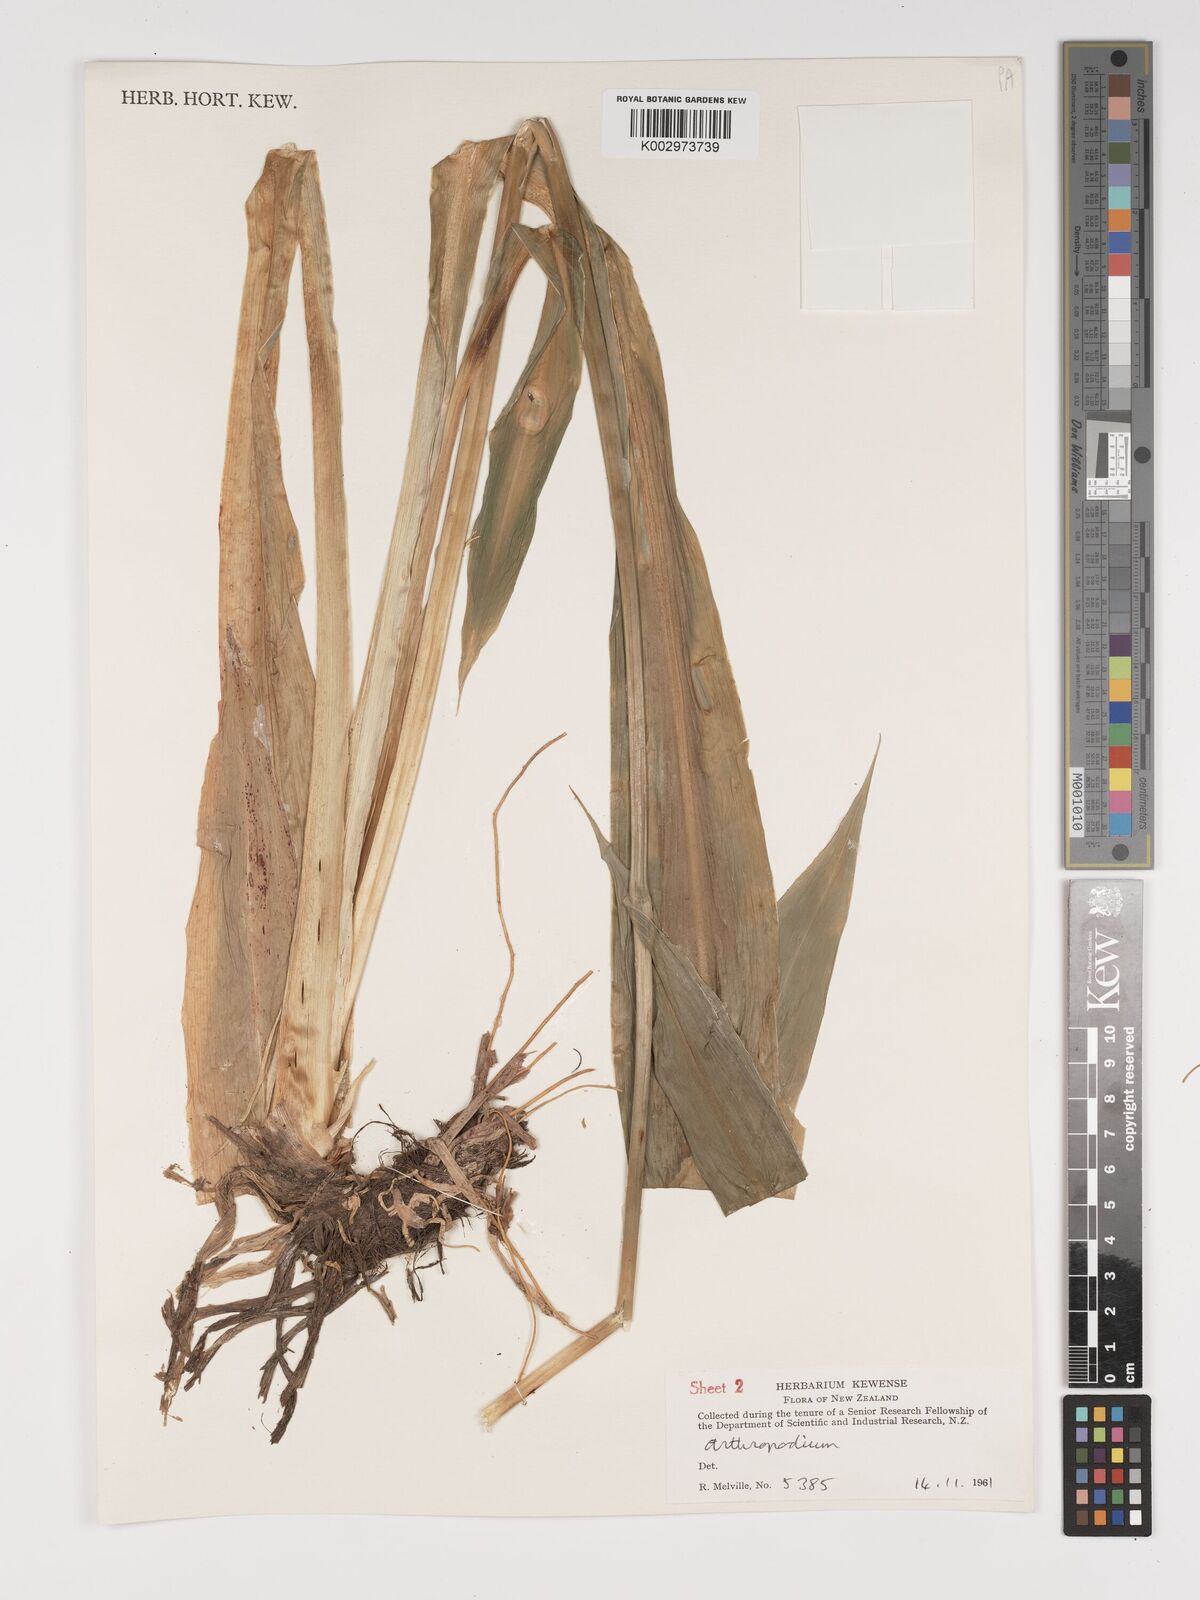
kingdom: Plantae
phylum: Tracheophyta
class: Liliopsida
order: Asparagales
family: Asparagaceae
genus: Arthropodium
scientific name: Arthropodium cirratum
